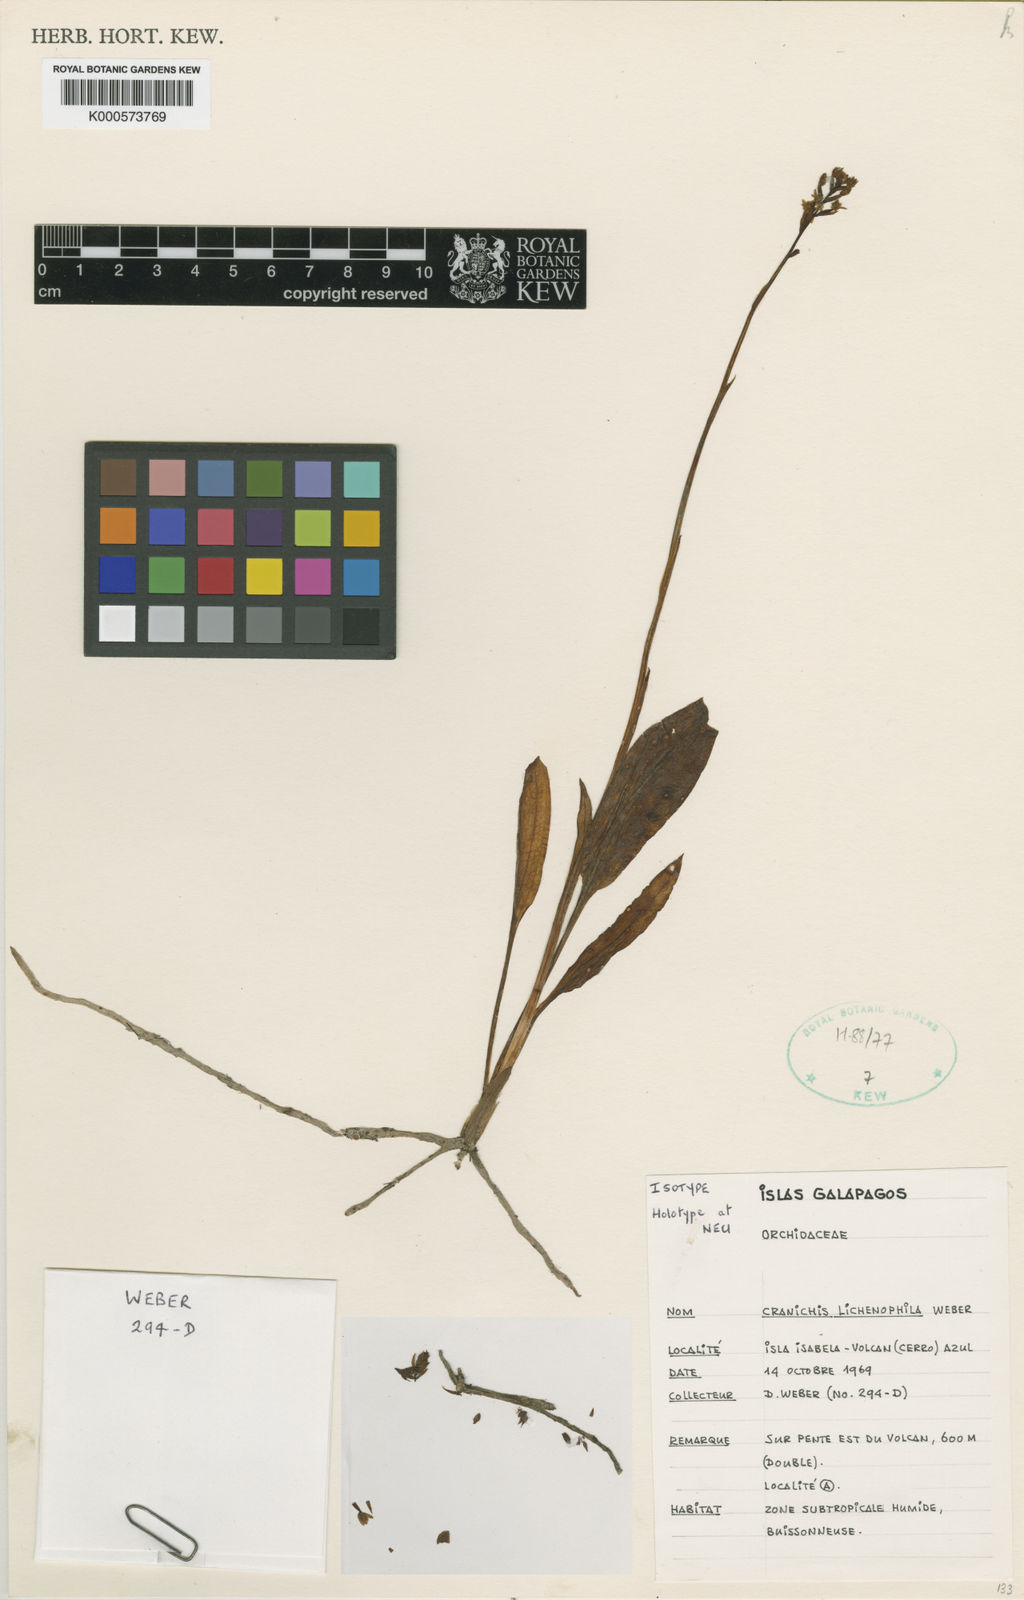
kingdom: Plantae
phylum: Tracheophyta
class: Liliopsida
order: Asparagales
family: Orchidaceae
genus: Cranichis
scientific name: Cranichis lichenophila
